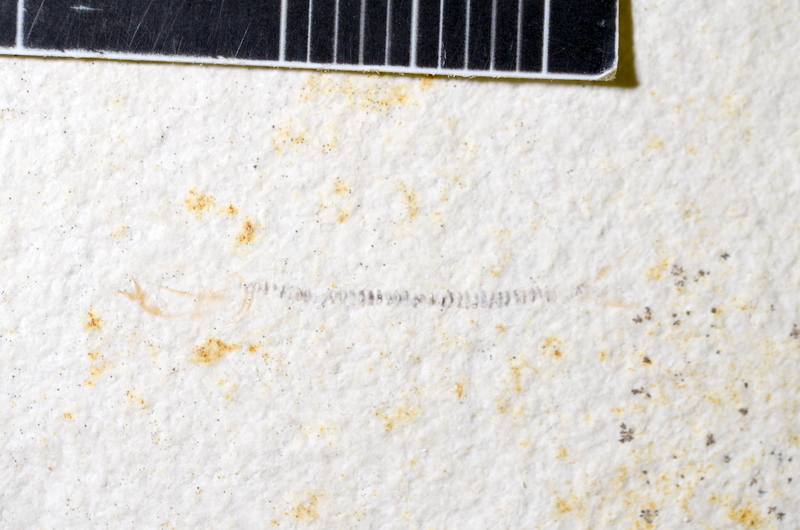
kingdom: Animalia
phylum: Chordata
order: Salmoniformes
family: Orthogonikleithridae
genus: Orthogonikleithrus
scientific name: Orthogonikleithrus hoelli
